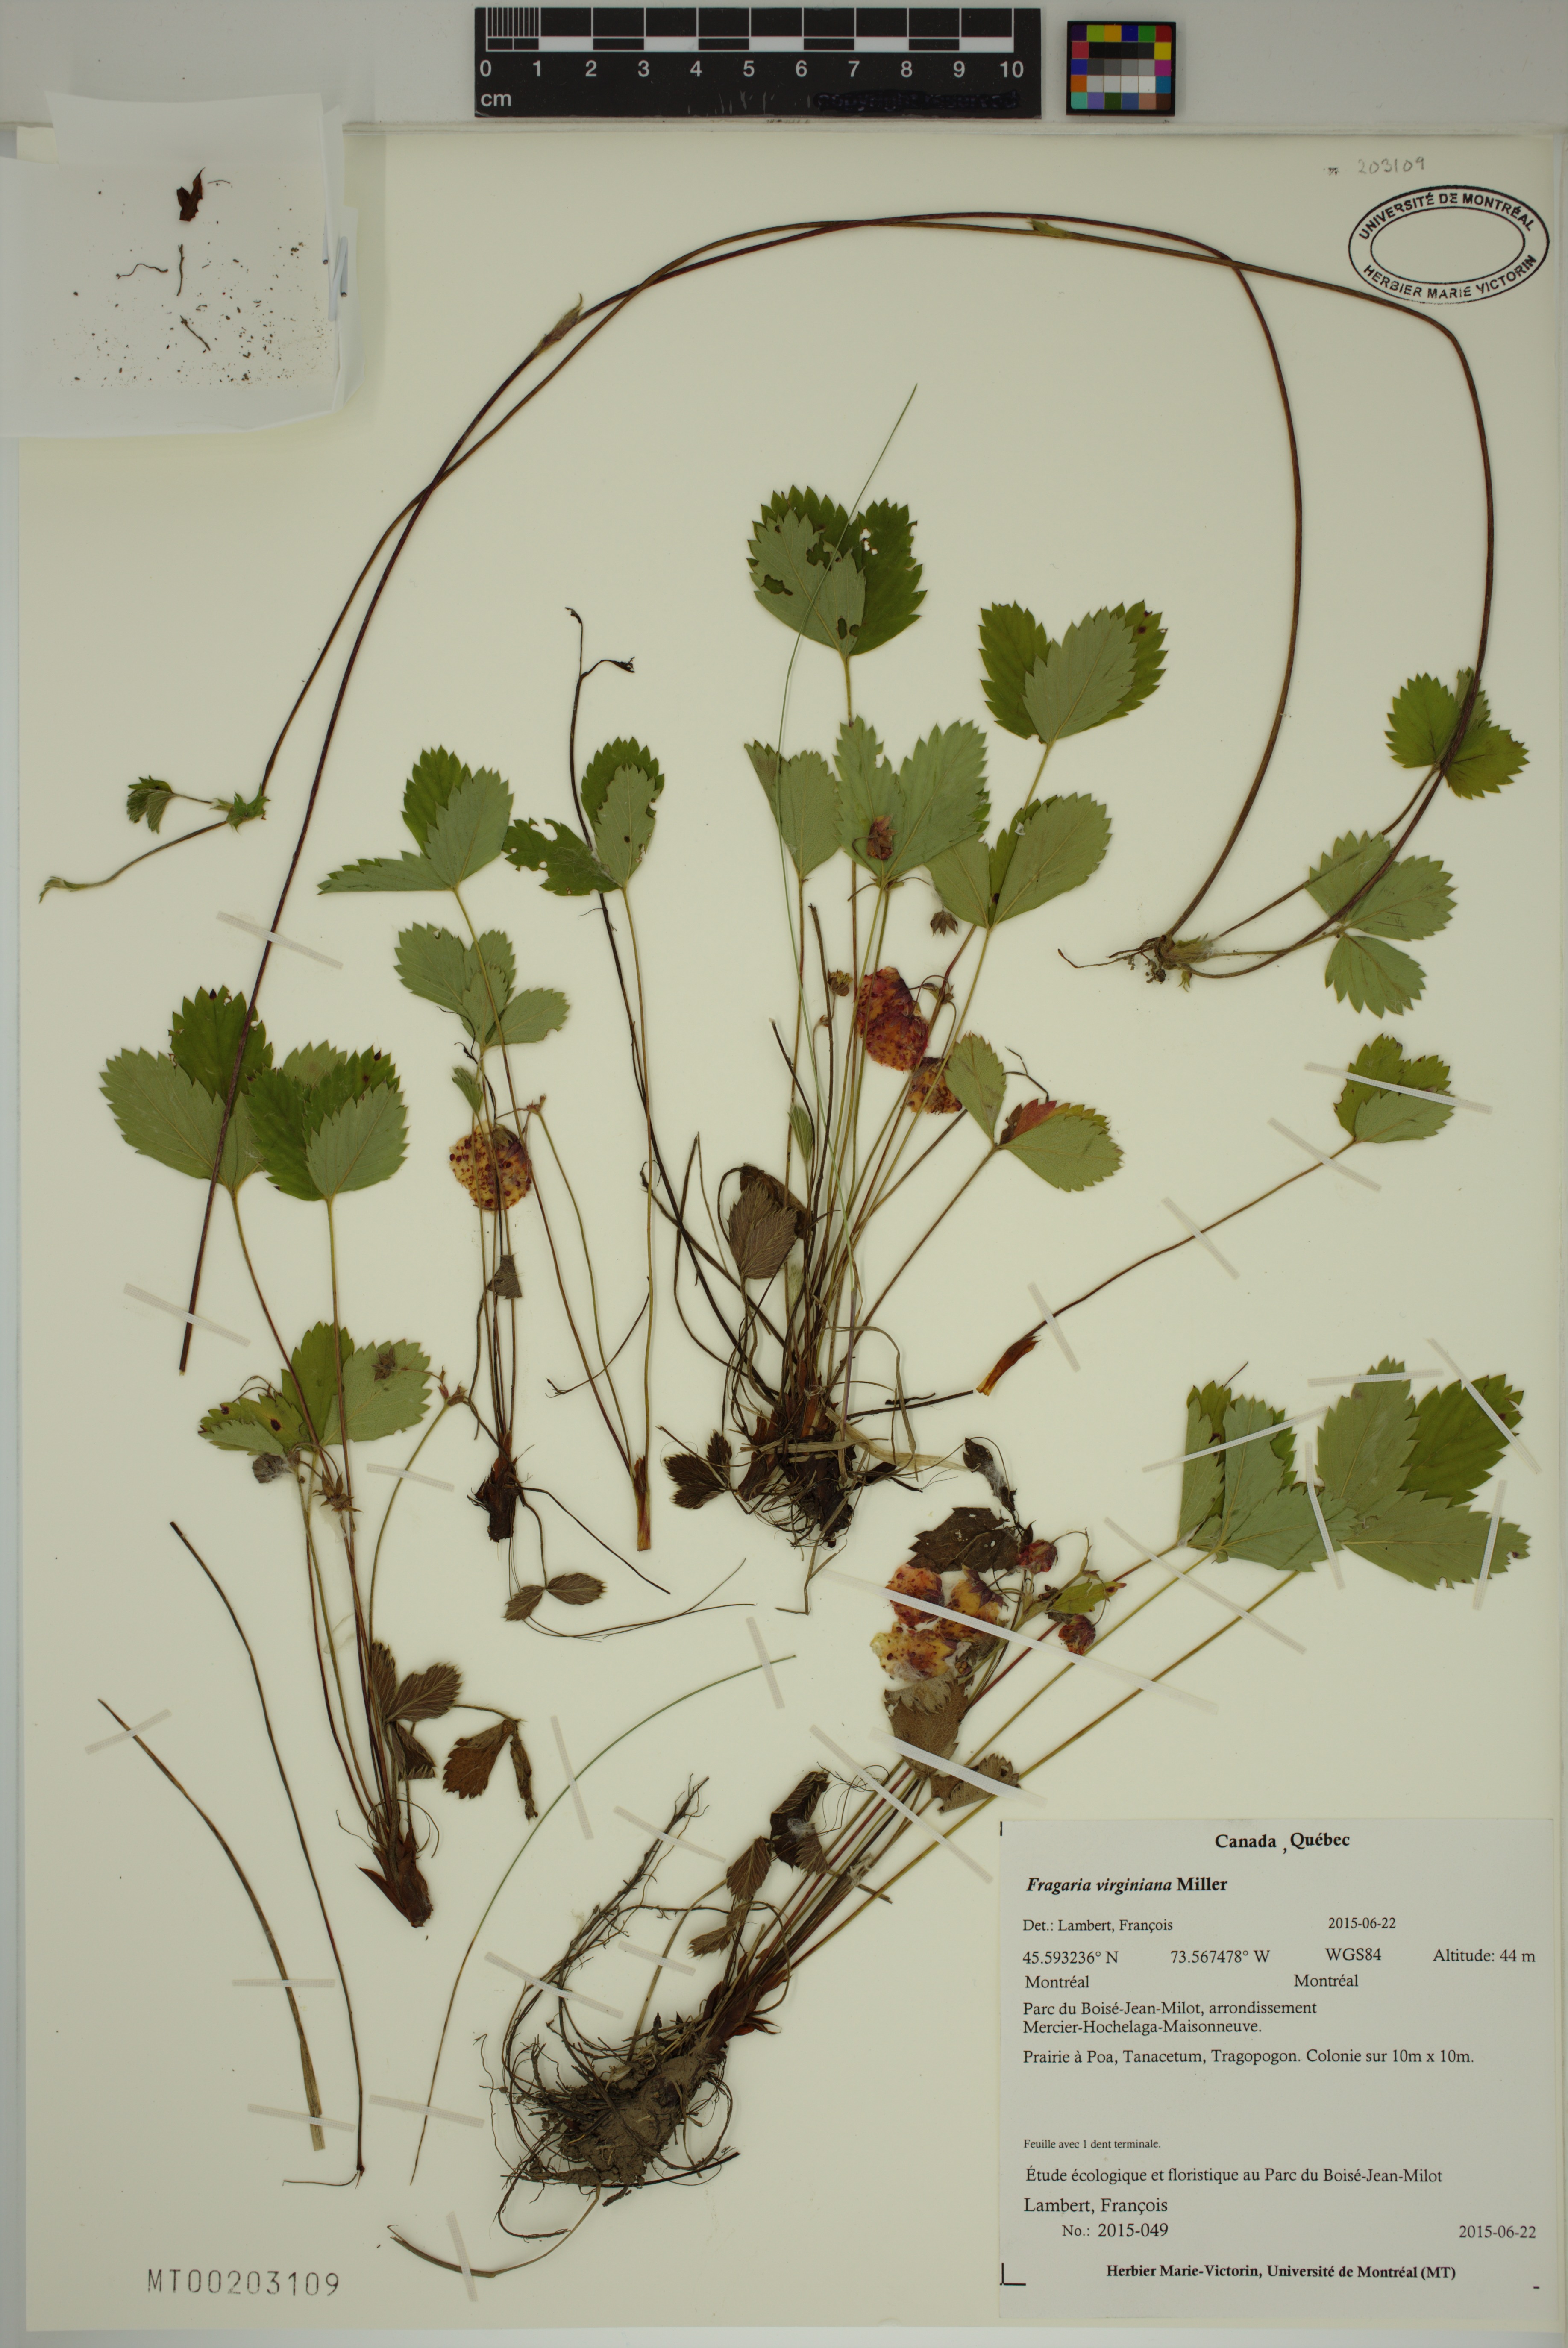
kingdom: Plantae
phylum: Tracheophyta
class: Magnoliopsida
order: Rosales
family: Rosaceae
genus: Fragaria
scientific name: Fragaria virginiana
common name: Thickleaved wild strawberry
